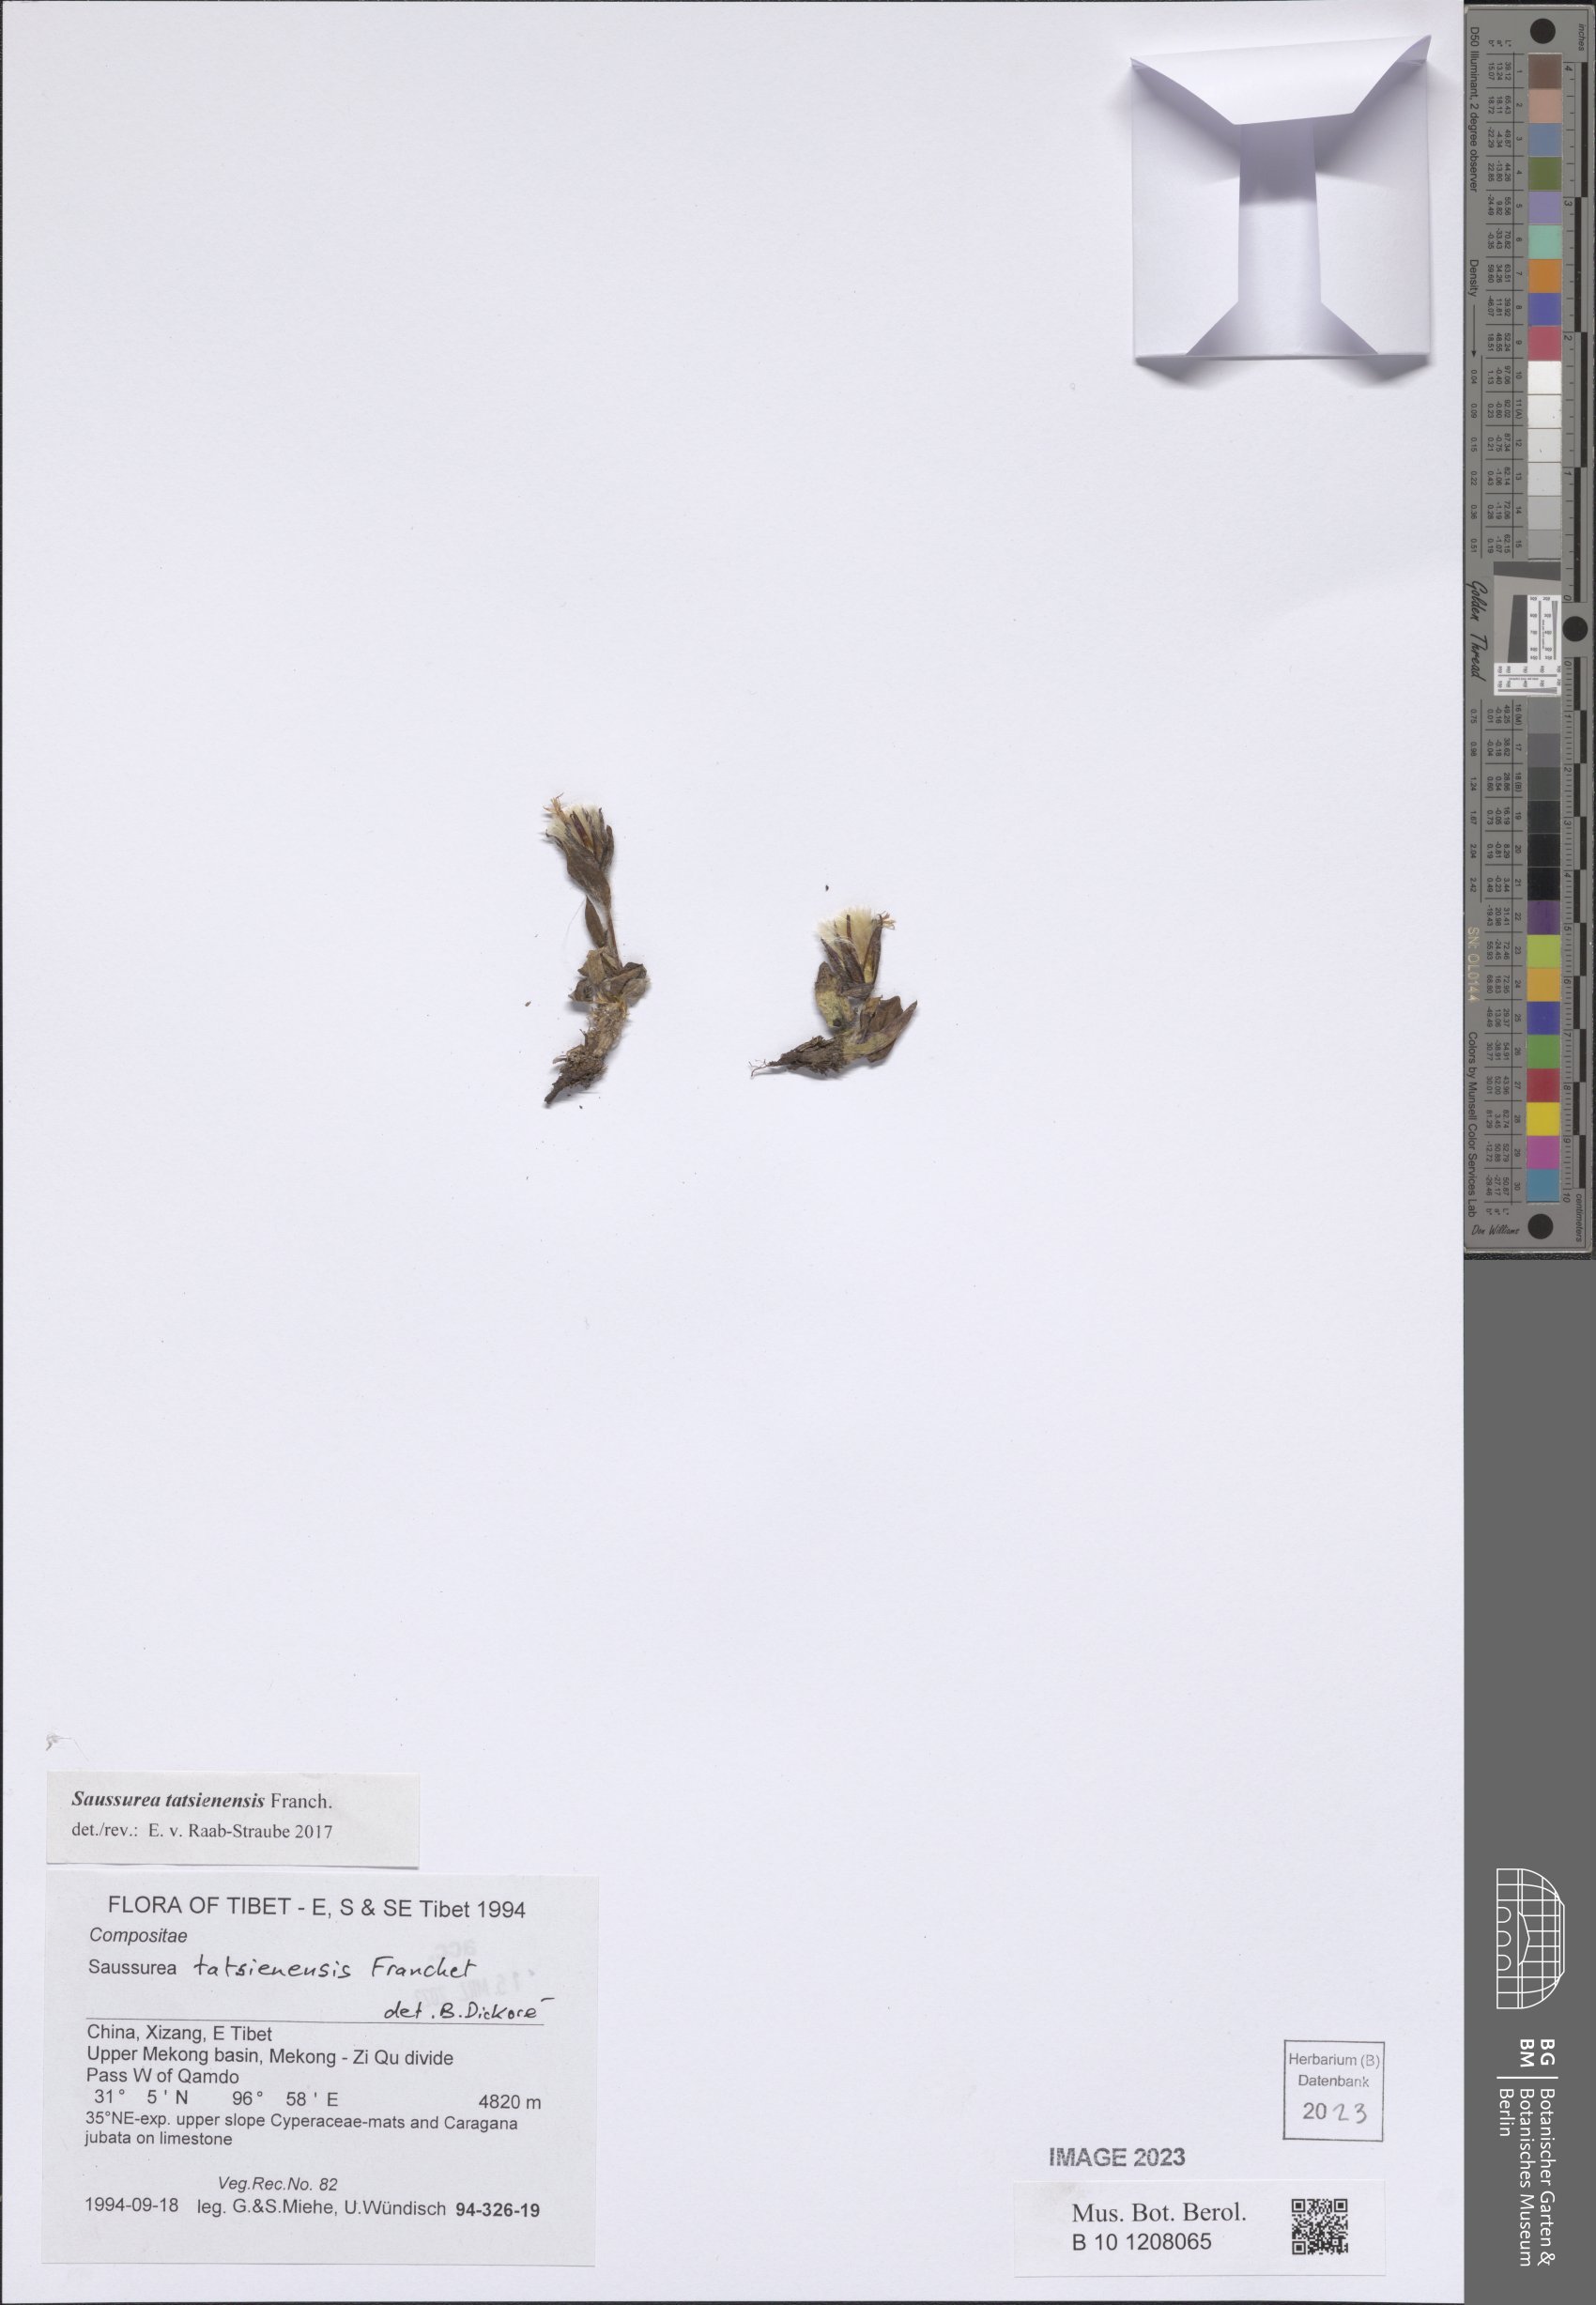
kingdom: Plantae
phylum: Tracheophyta
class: Magnoliopsida
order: Asterales
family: Asteraceae
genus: Saussurea
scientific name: Saussurea tatsienensis
